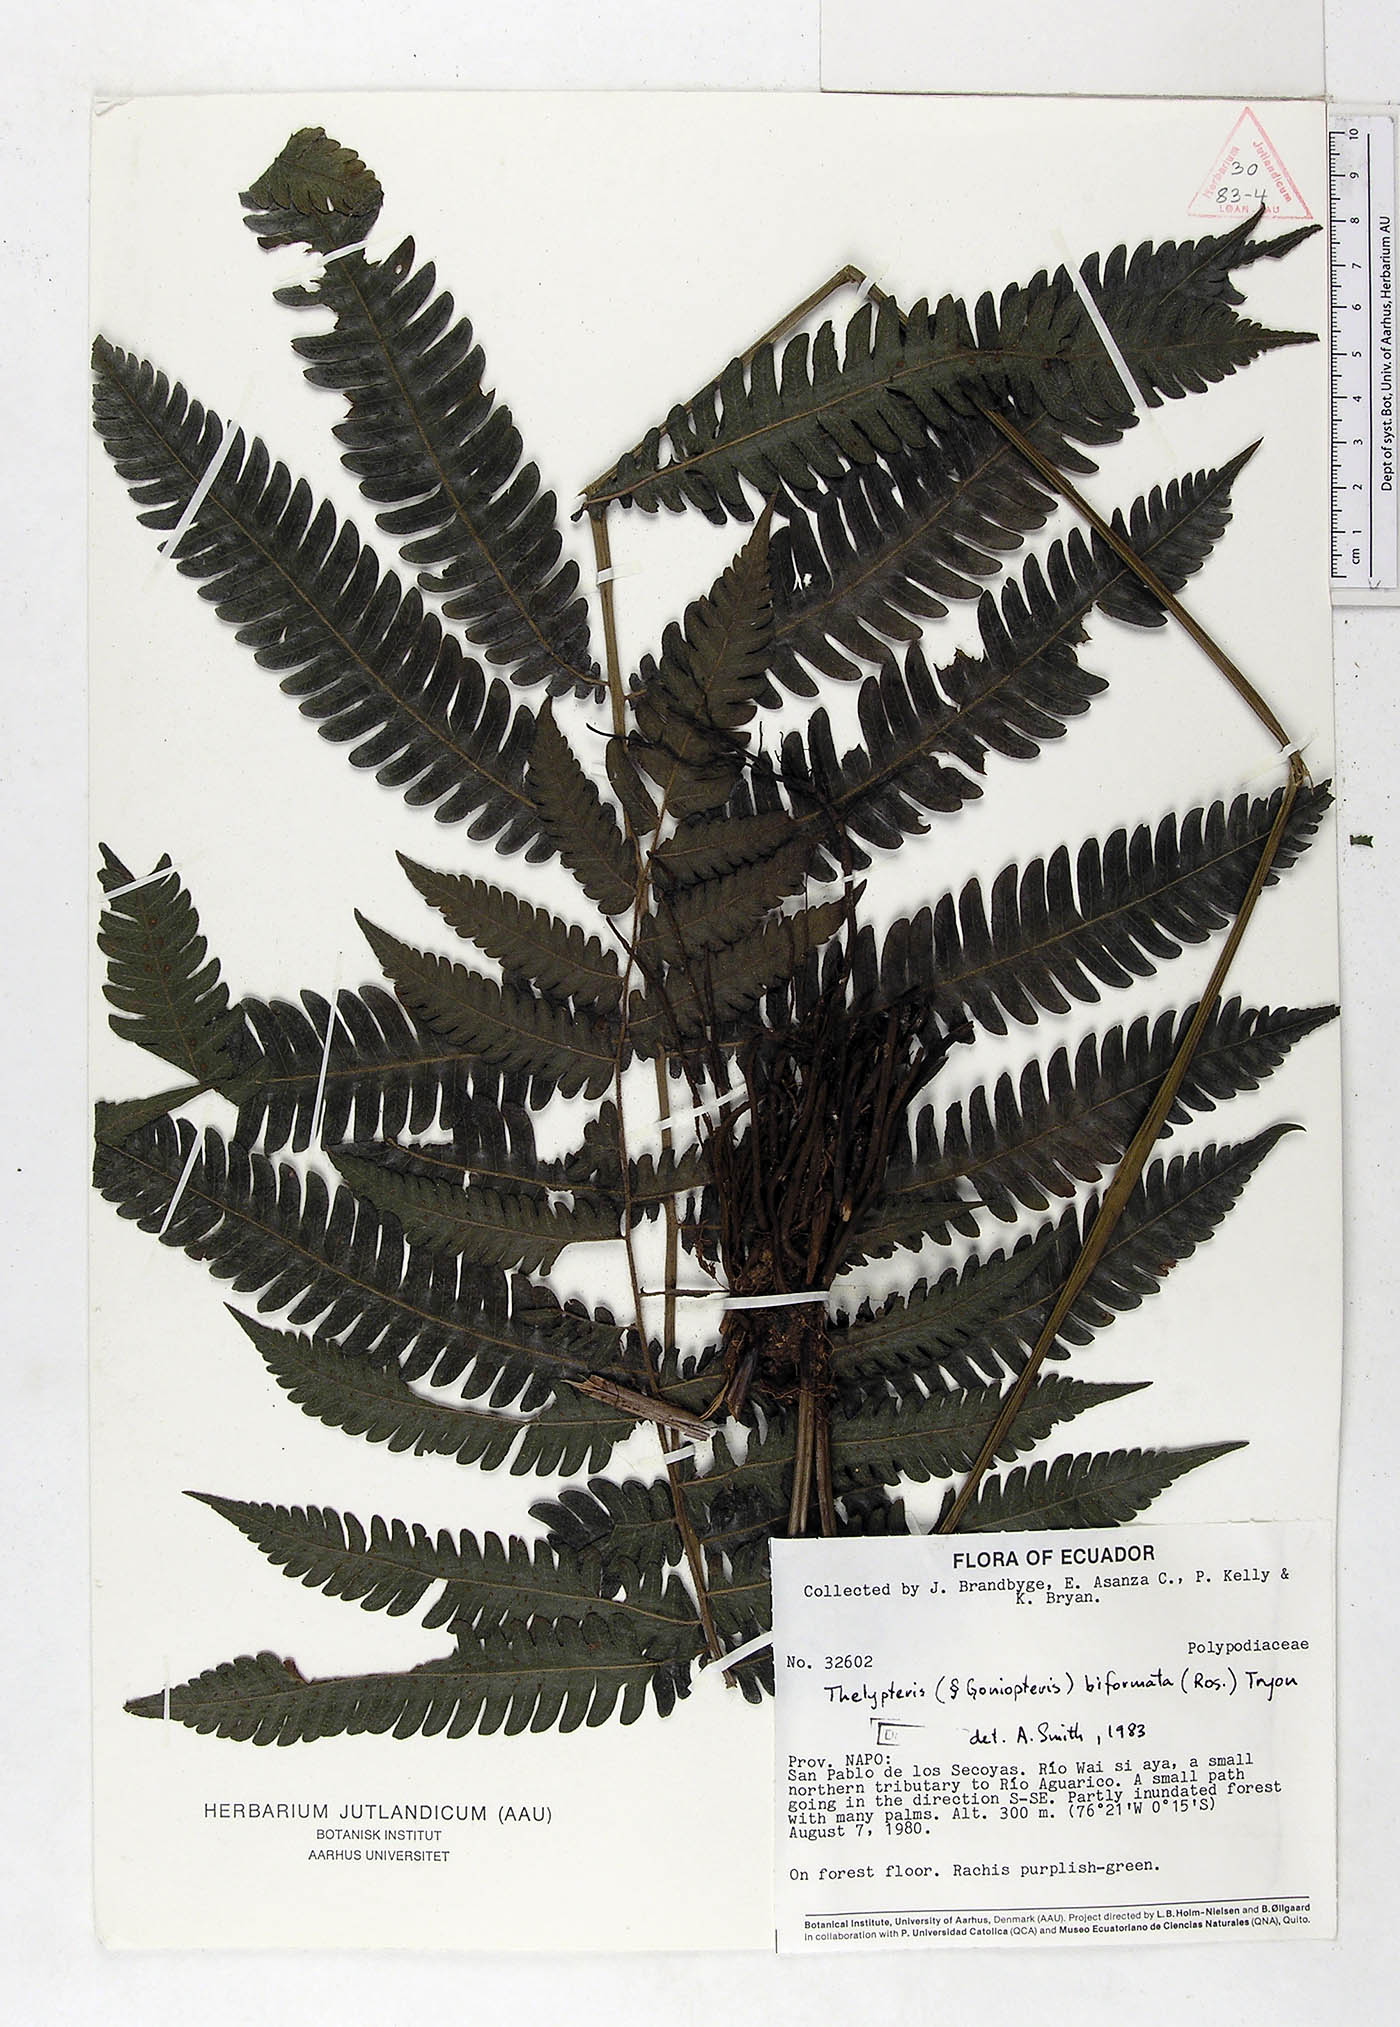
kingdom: Plantae
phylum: Tracheophyta
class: Polypodiopsida
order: Polypodiales
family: Thelypteridaceae
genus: Goniopteris
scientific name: Goniopteris biformata
